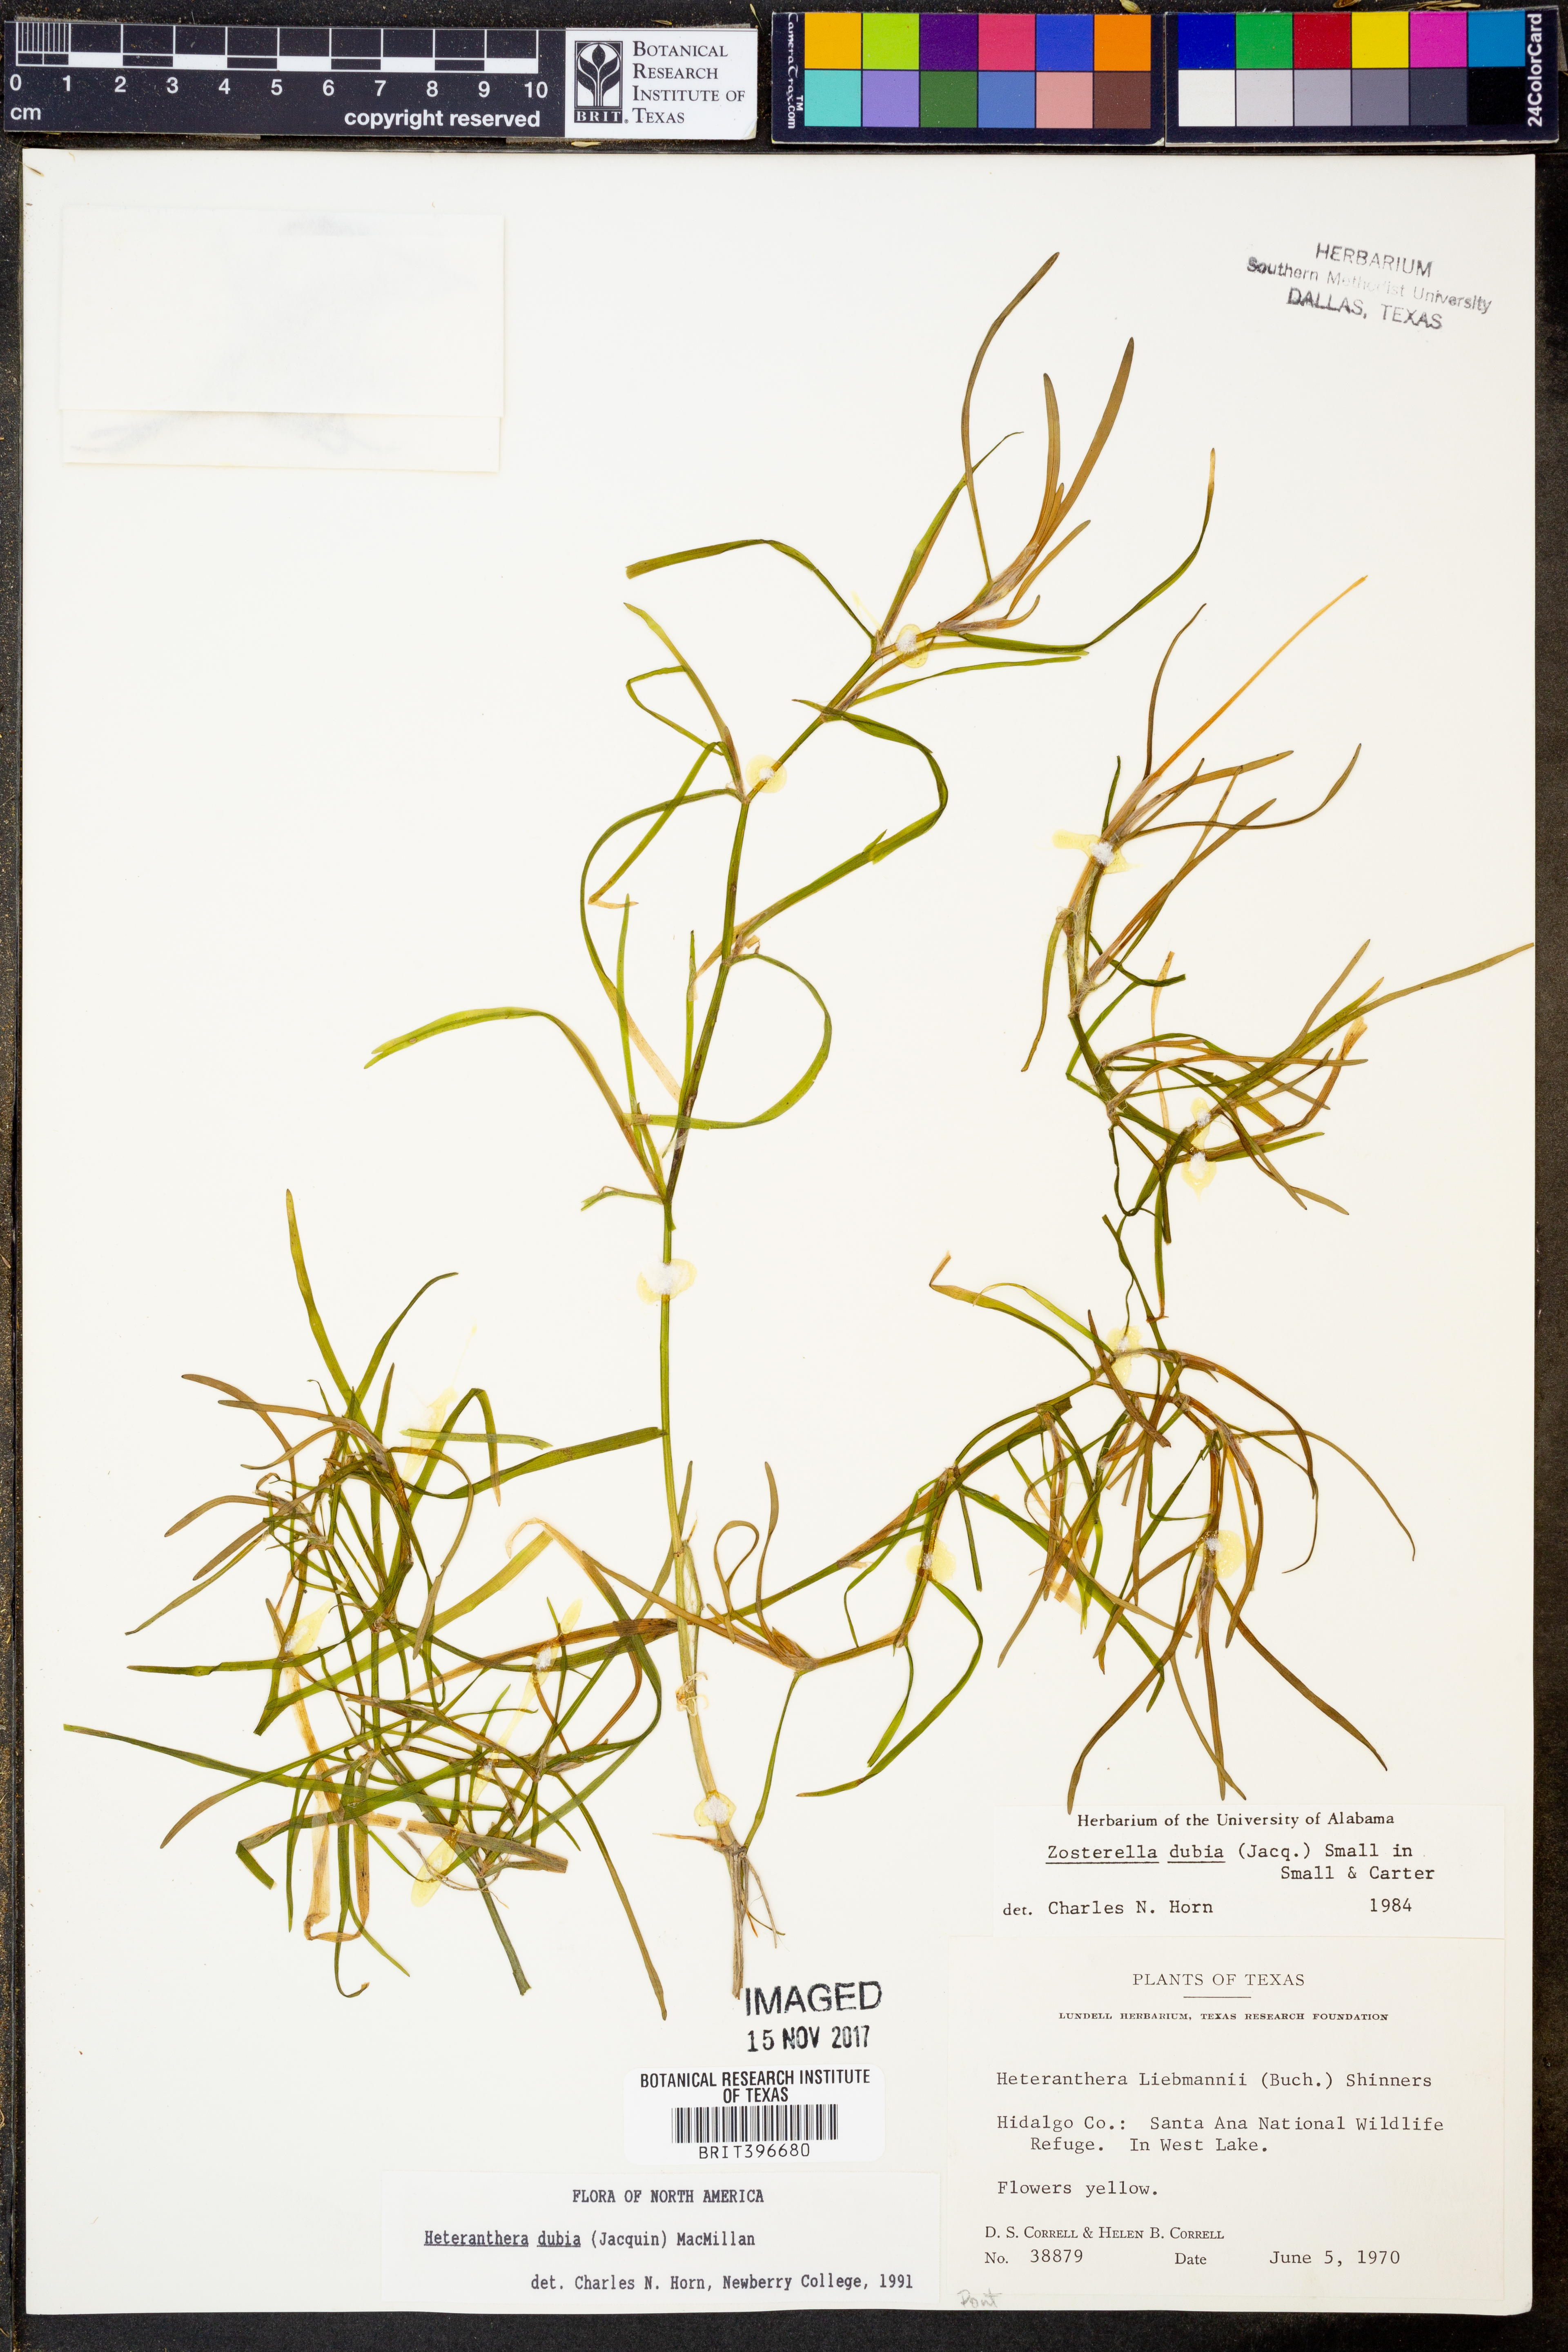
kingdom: Plantae
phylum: Tracheophyta
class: Liliopsida
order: Commelinales
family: Pontederiaceae
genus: Heteranthera
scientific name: Heteranthera dubia
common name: Grass-leaved mud plantain
